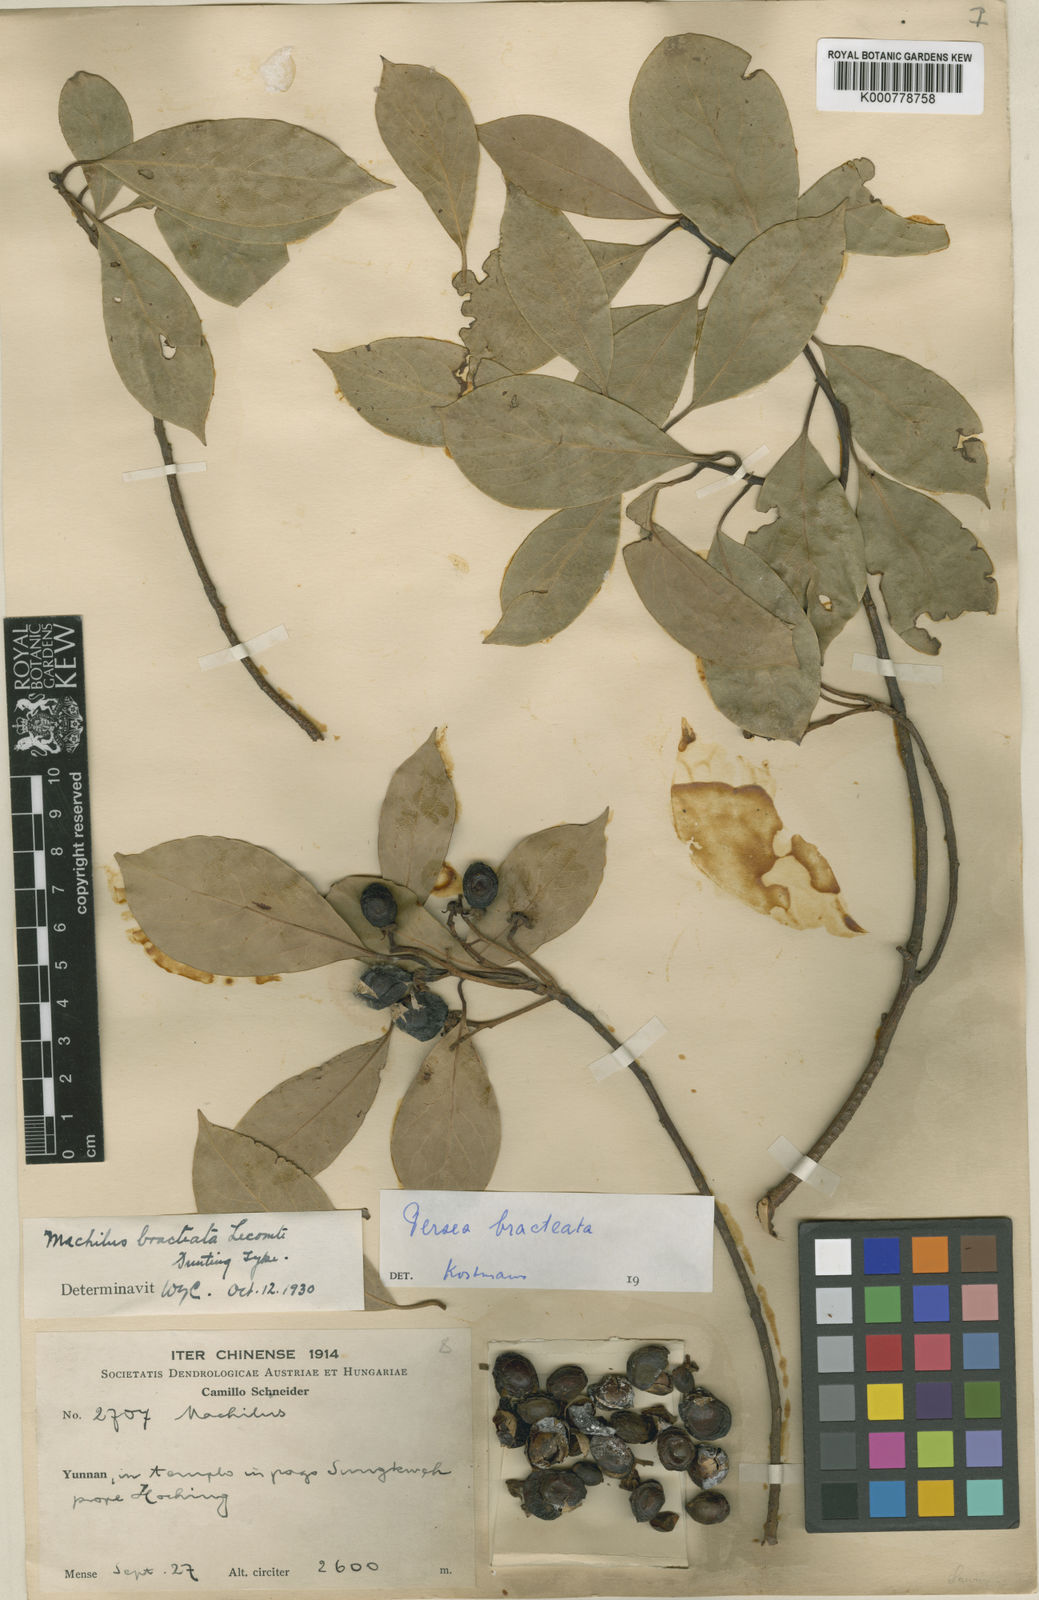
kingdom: Plantae
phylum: Tracheophyta
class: Magnoliopsida
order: Laurales
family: Lauraceae
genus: Machilus
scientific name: Machilus yunnanensis
